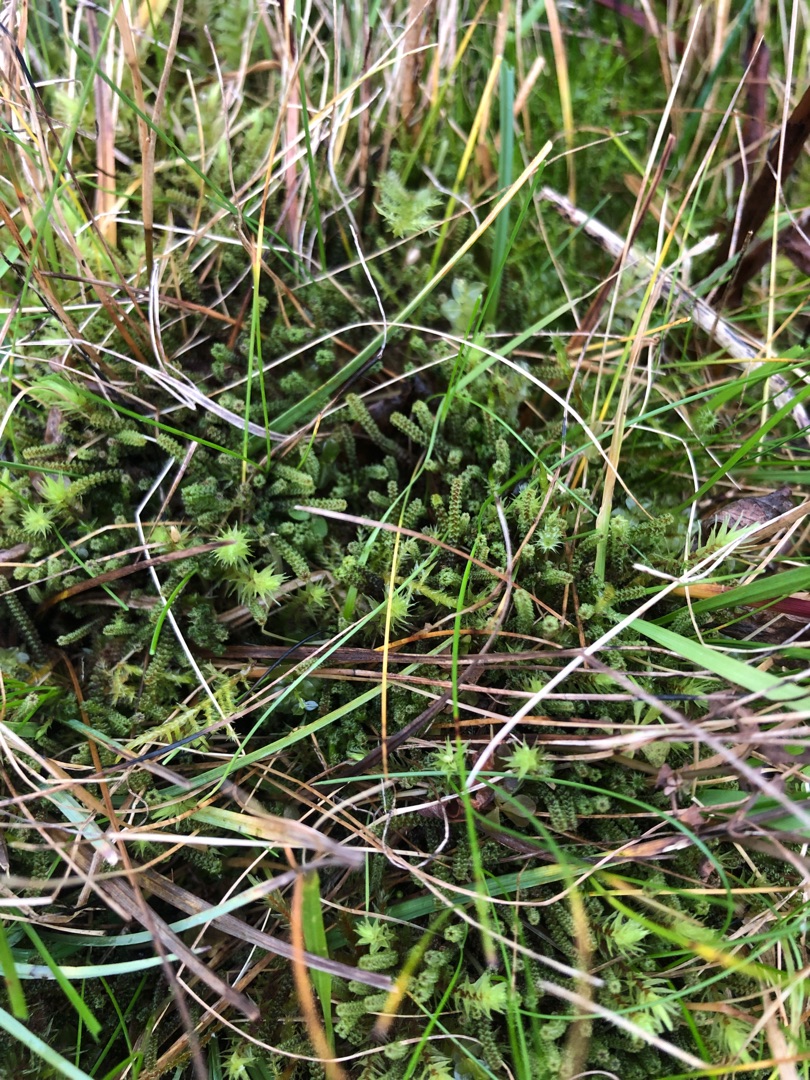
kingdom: Plantae
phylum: Bryophyta
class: Bryopsida
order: Splachnales
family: Meesiaceae
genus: Paludella
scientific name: Paludella squarrosa
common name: Almindelig piberensermos
